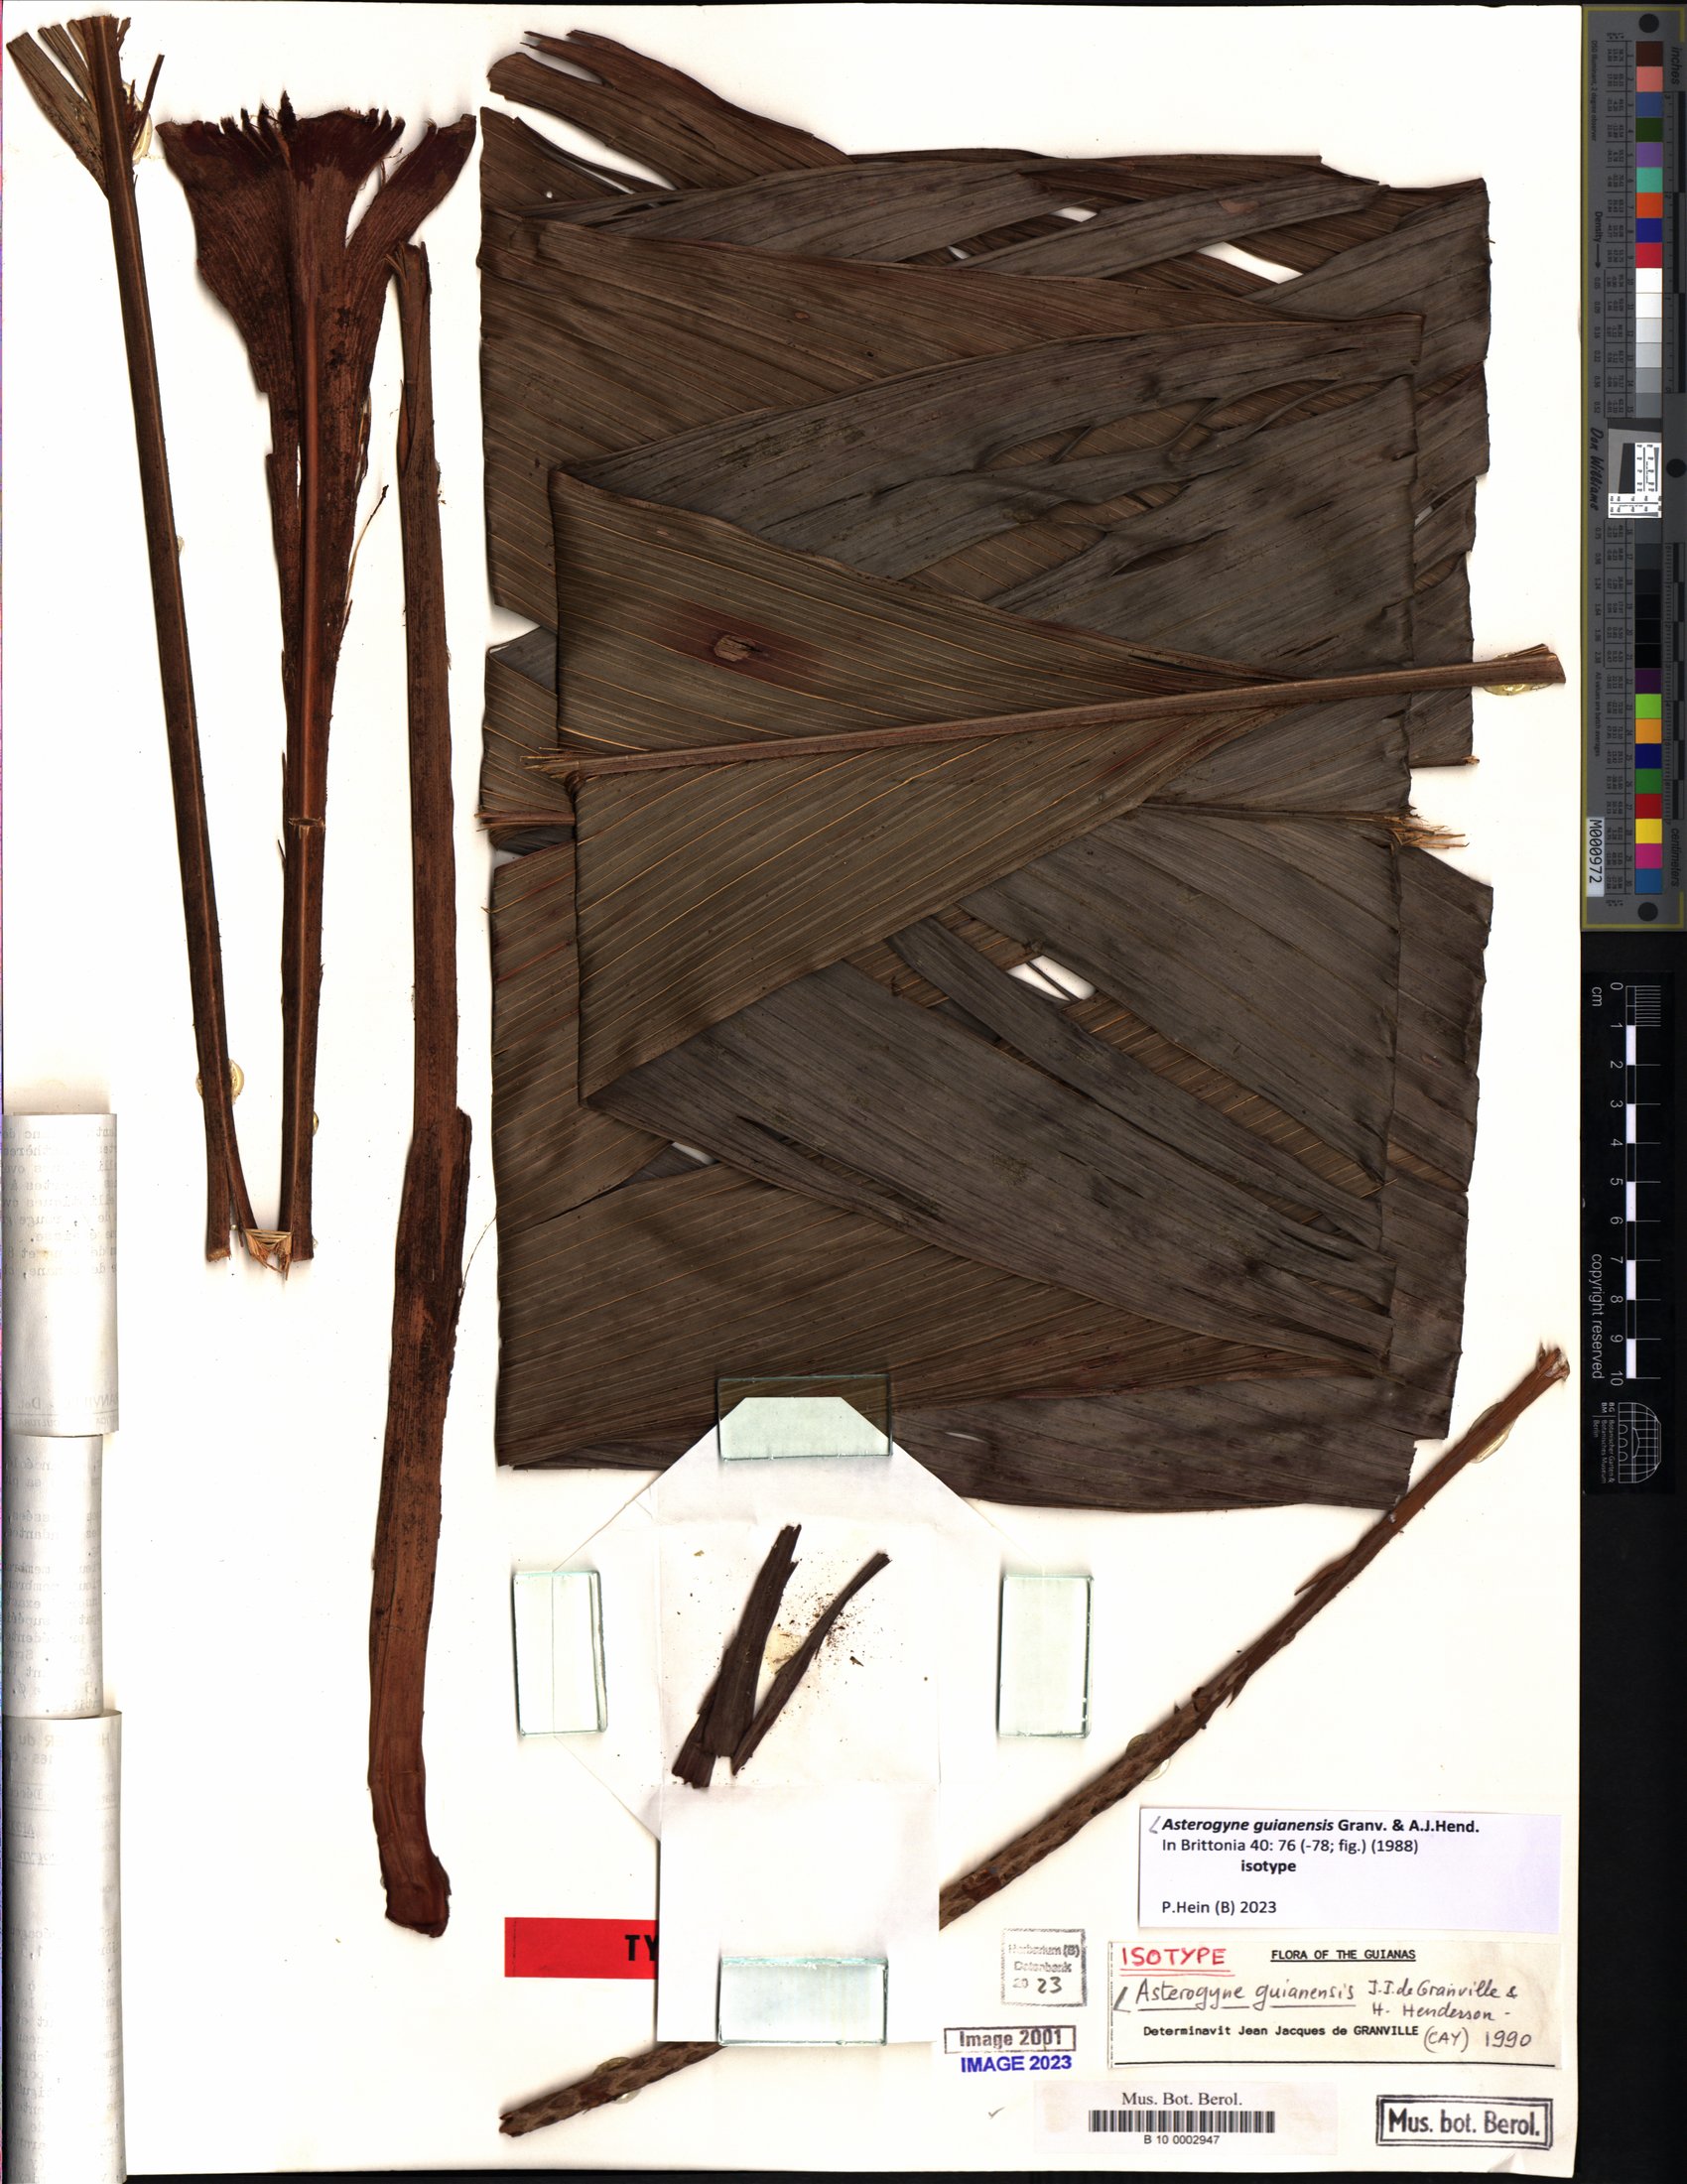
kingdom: Plantae
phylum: Tracheophyta
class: Liliopsida
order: Arecales
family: Arecaceae
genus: Asterogyne
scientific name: Asterogyne guianensis
